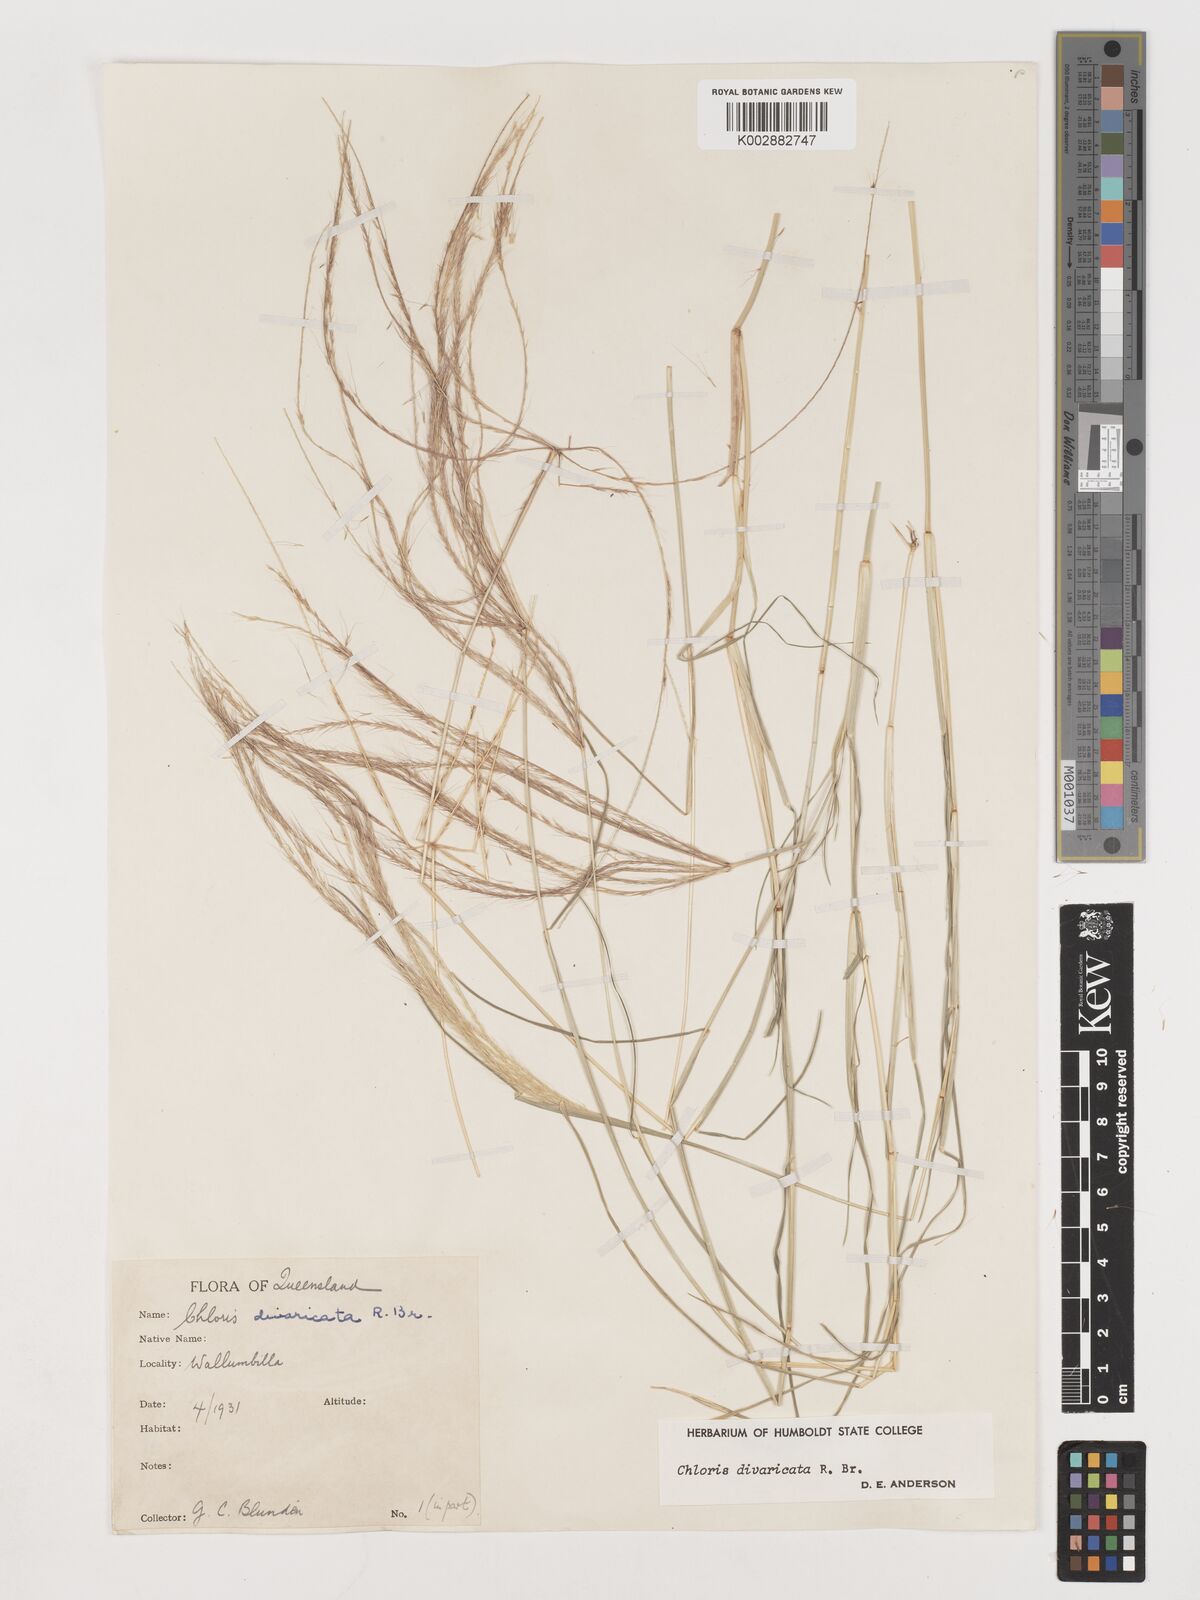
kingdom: Plantae
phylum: Tracheophyta
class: Liliopsida
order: Poales
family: Poaceae
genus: Chloris
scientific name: Chloris divaricata
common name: Spreading windmill grass
